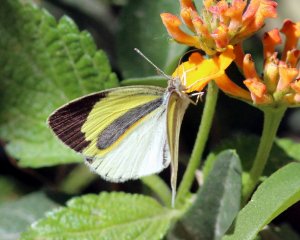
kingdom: Animalia
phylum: Arthropoda
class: Insecta
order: Lepidoptera
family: Pieridae
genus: Eurema
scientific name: Eurema daira
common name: Barred Yellow
